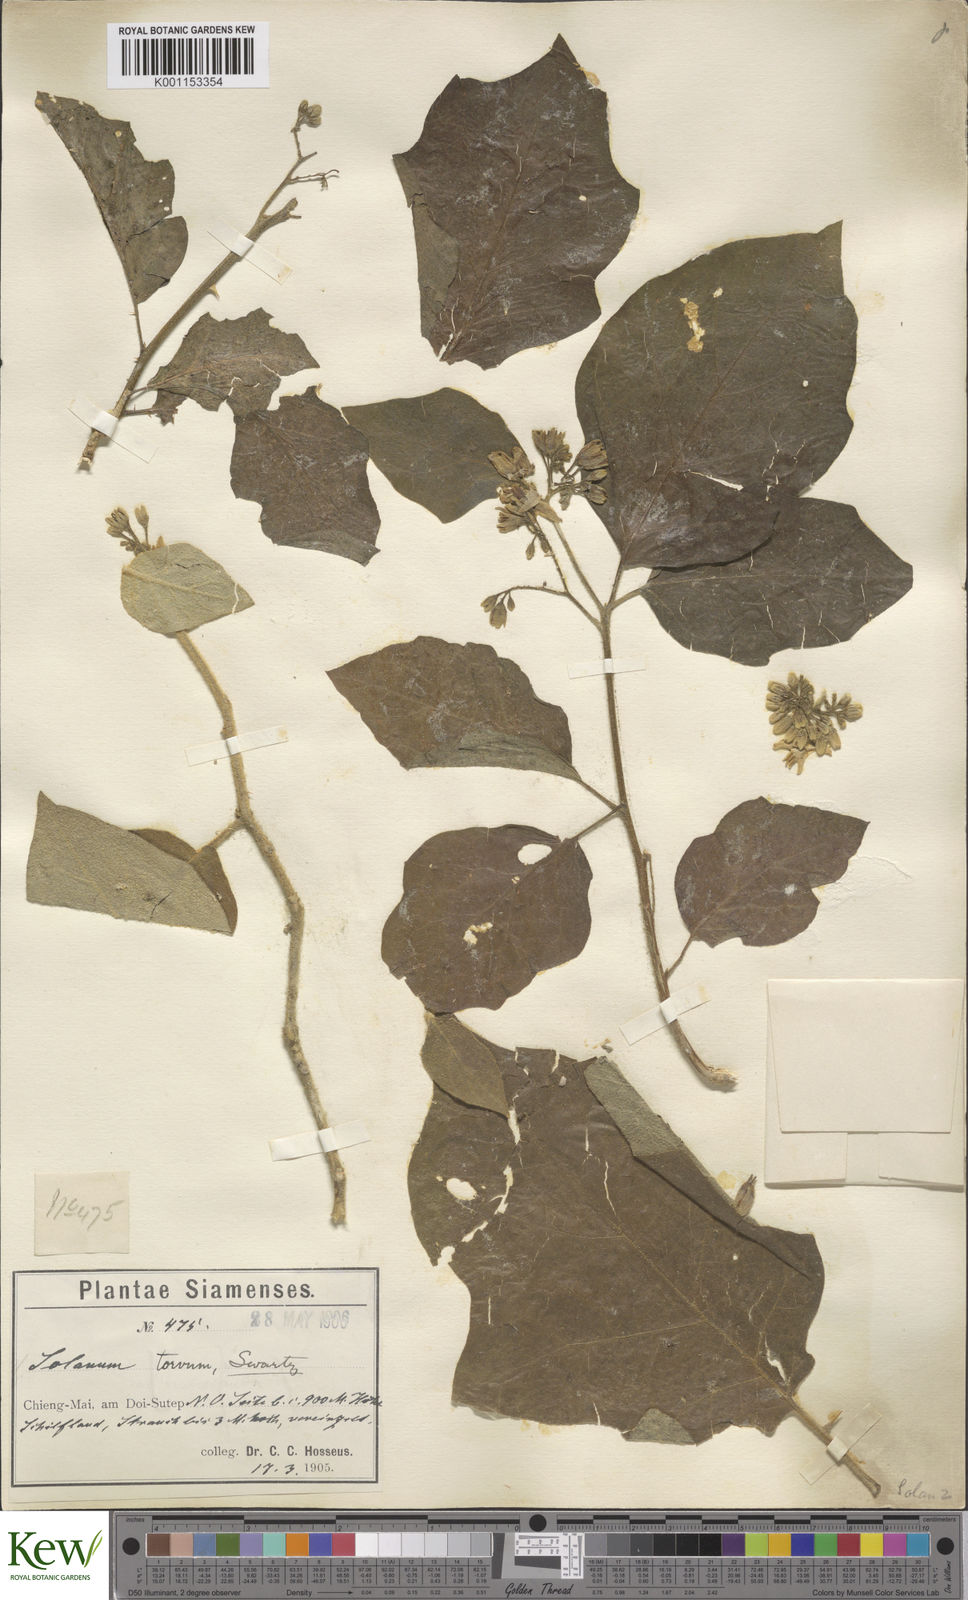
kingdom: Plantae
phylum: Tracheophyta
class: Magnoliopsida
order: Solanales
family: Solanaceae
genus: Solanum
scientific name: Solanum torvum
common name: Turkey berry
